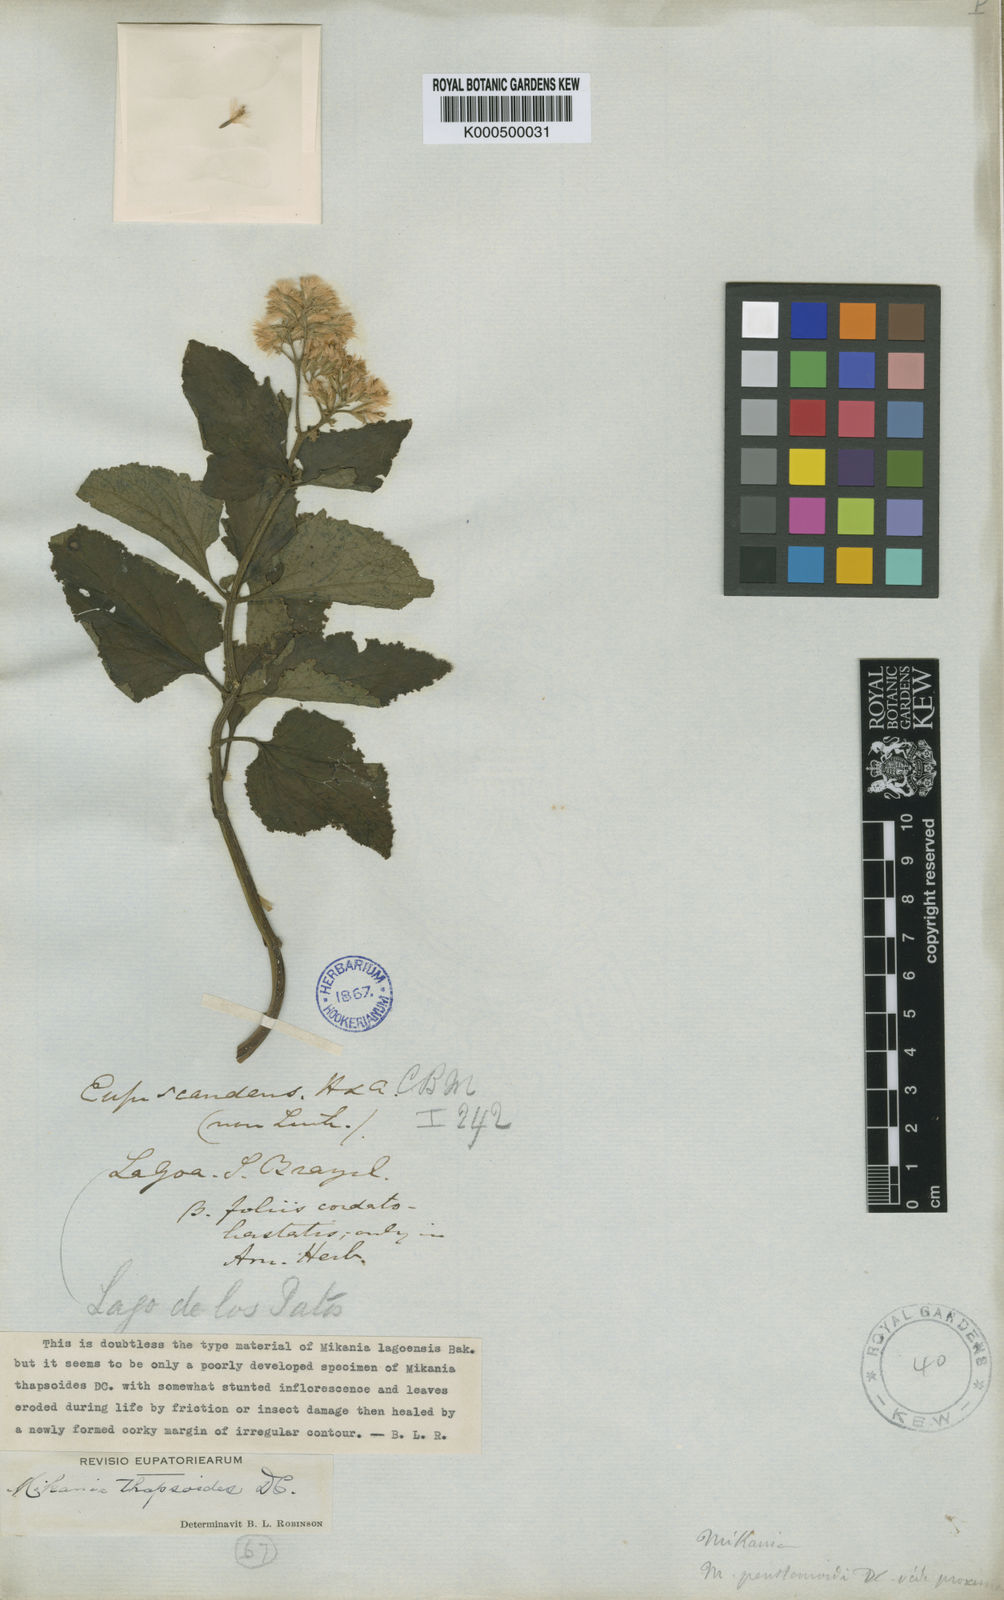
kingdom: Plantae
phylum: Tracheophyta
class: Magnoliopsida
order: Asterales
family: Asteraceae
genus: Mikania
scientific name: Mikania lagoensis
